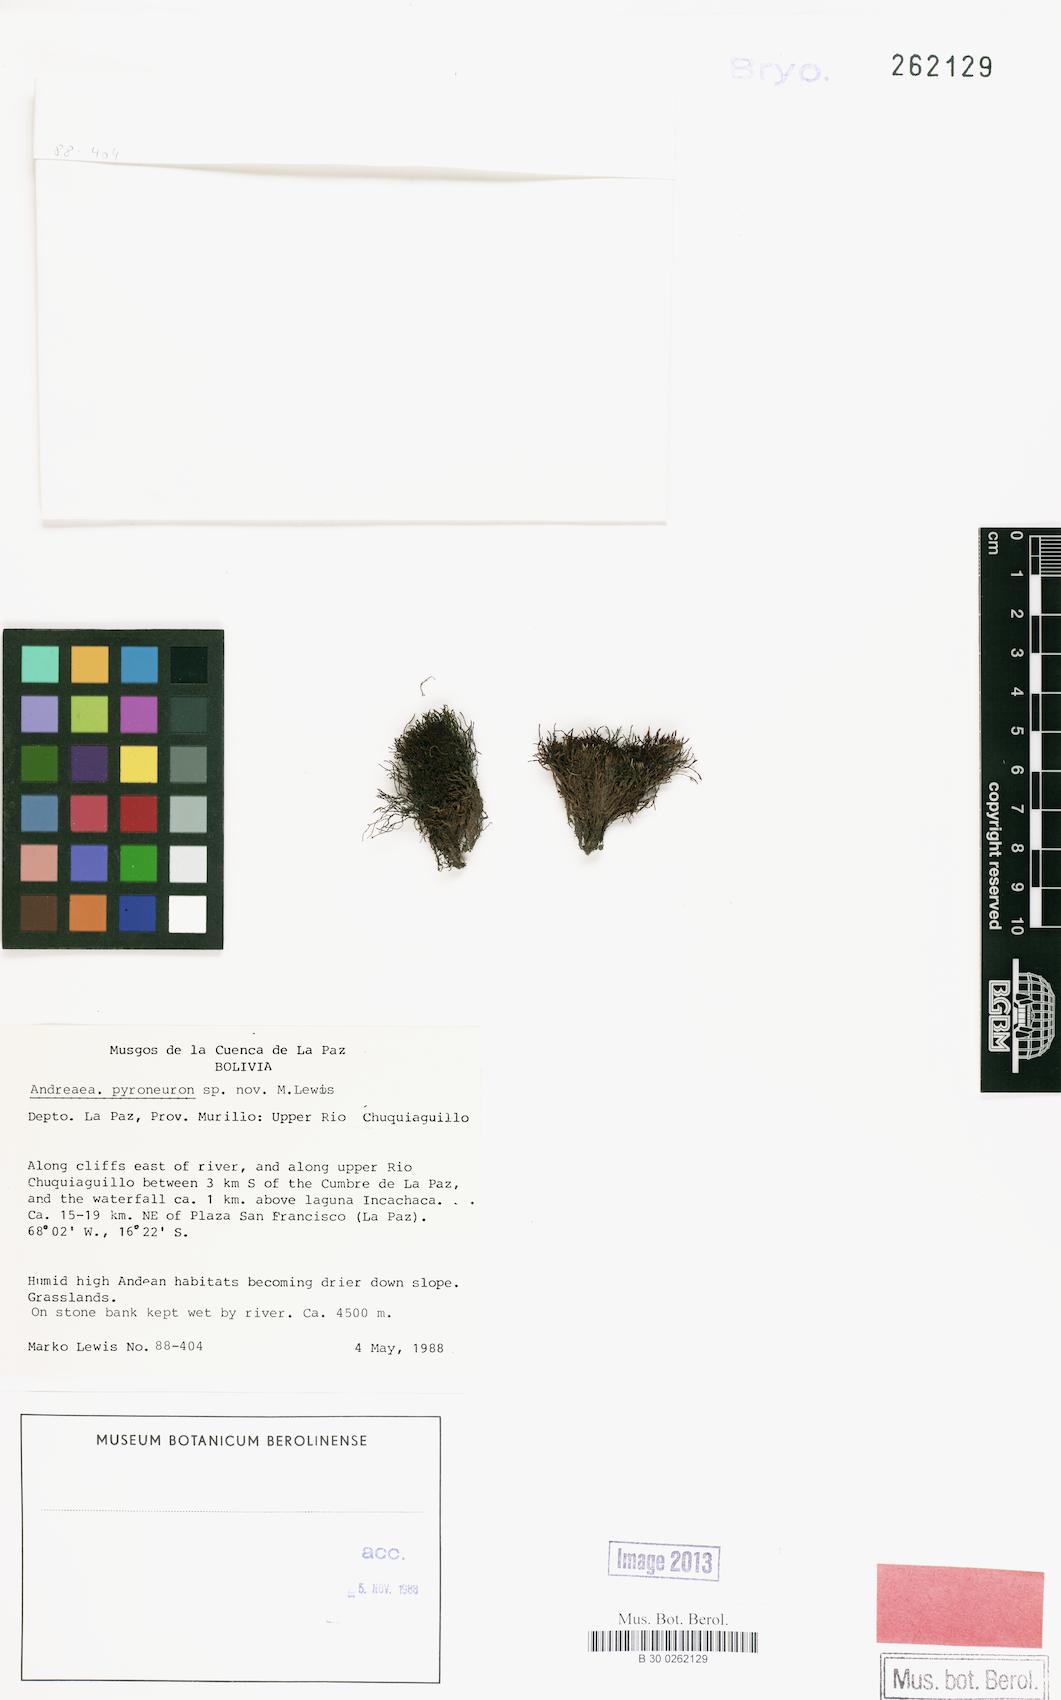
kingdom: Plantae
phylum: Bryophyta
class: Andreaeopsida
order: Andreaeales
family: Andreaeaceae
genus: Andreaea
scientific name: Andreaea
